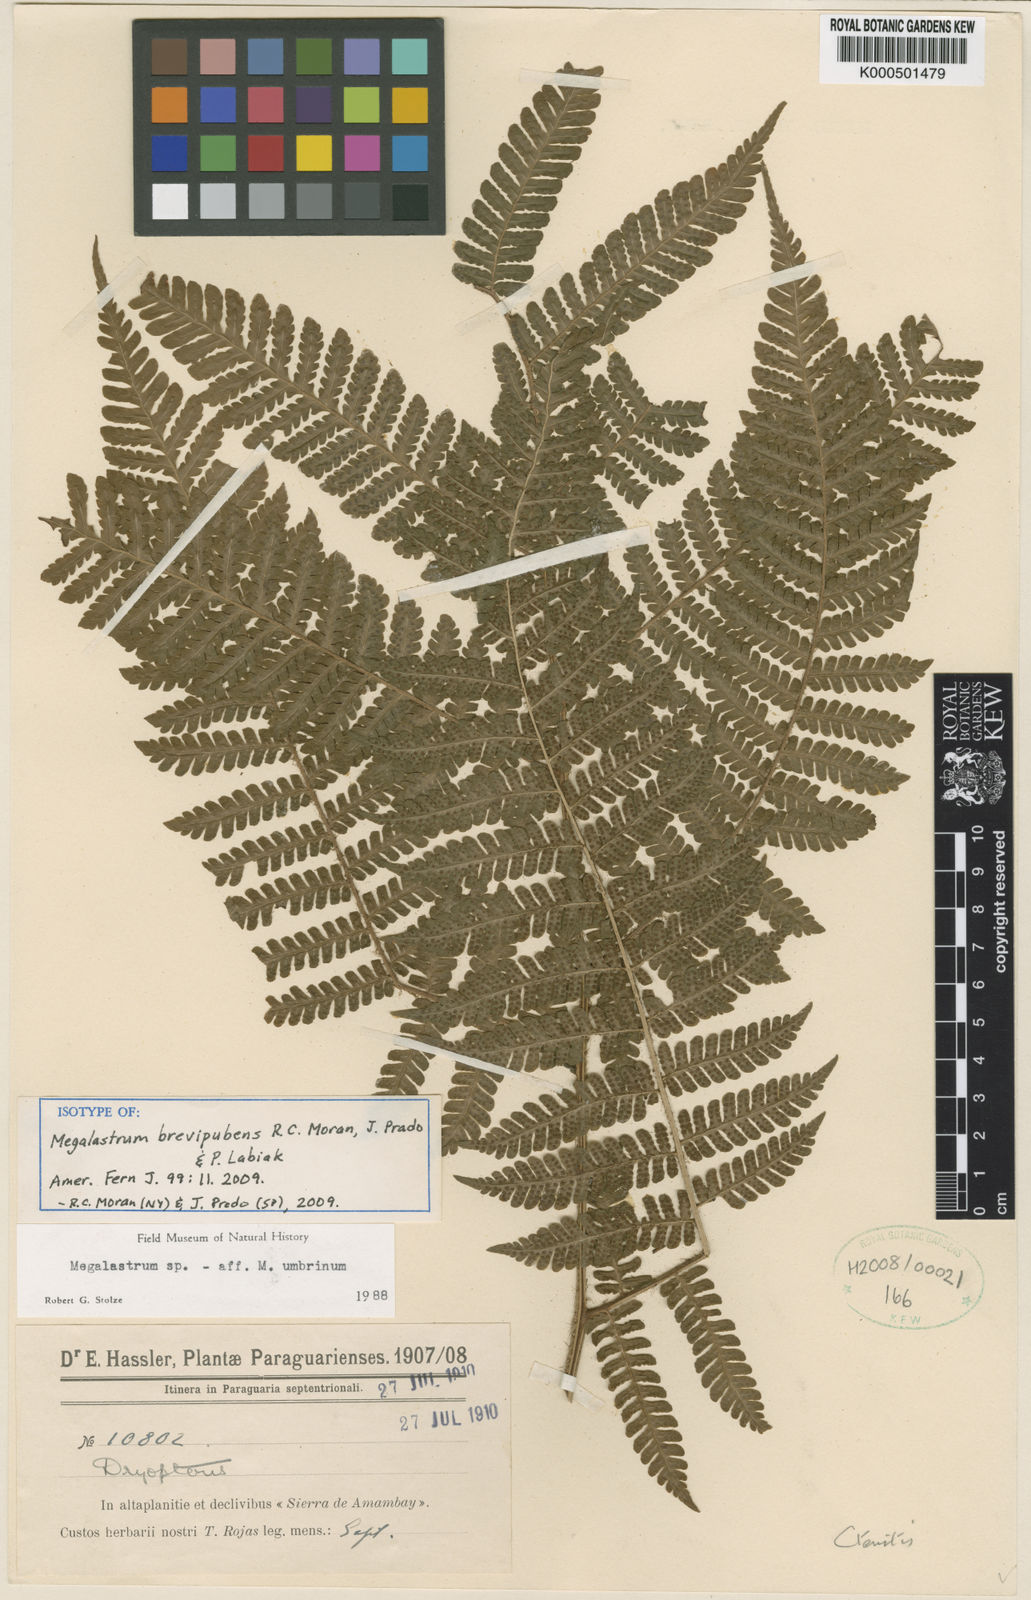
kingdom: Plantae
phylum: Tracheophyta
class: Polypodiopsida
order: Polypodiales
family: Dryopteridaceae
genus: Megalastrum
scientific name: Megalastrum brevipubens
